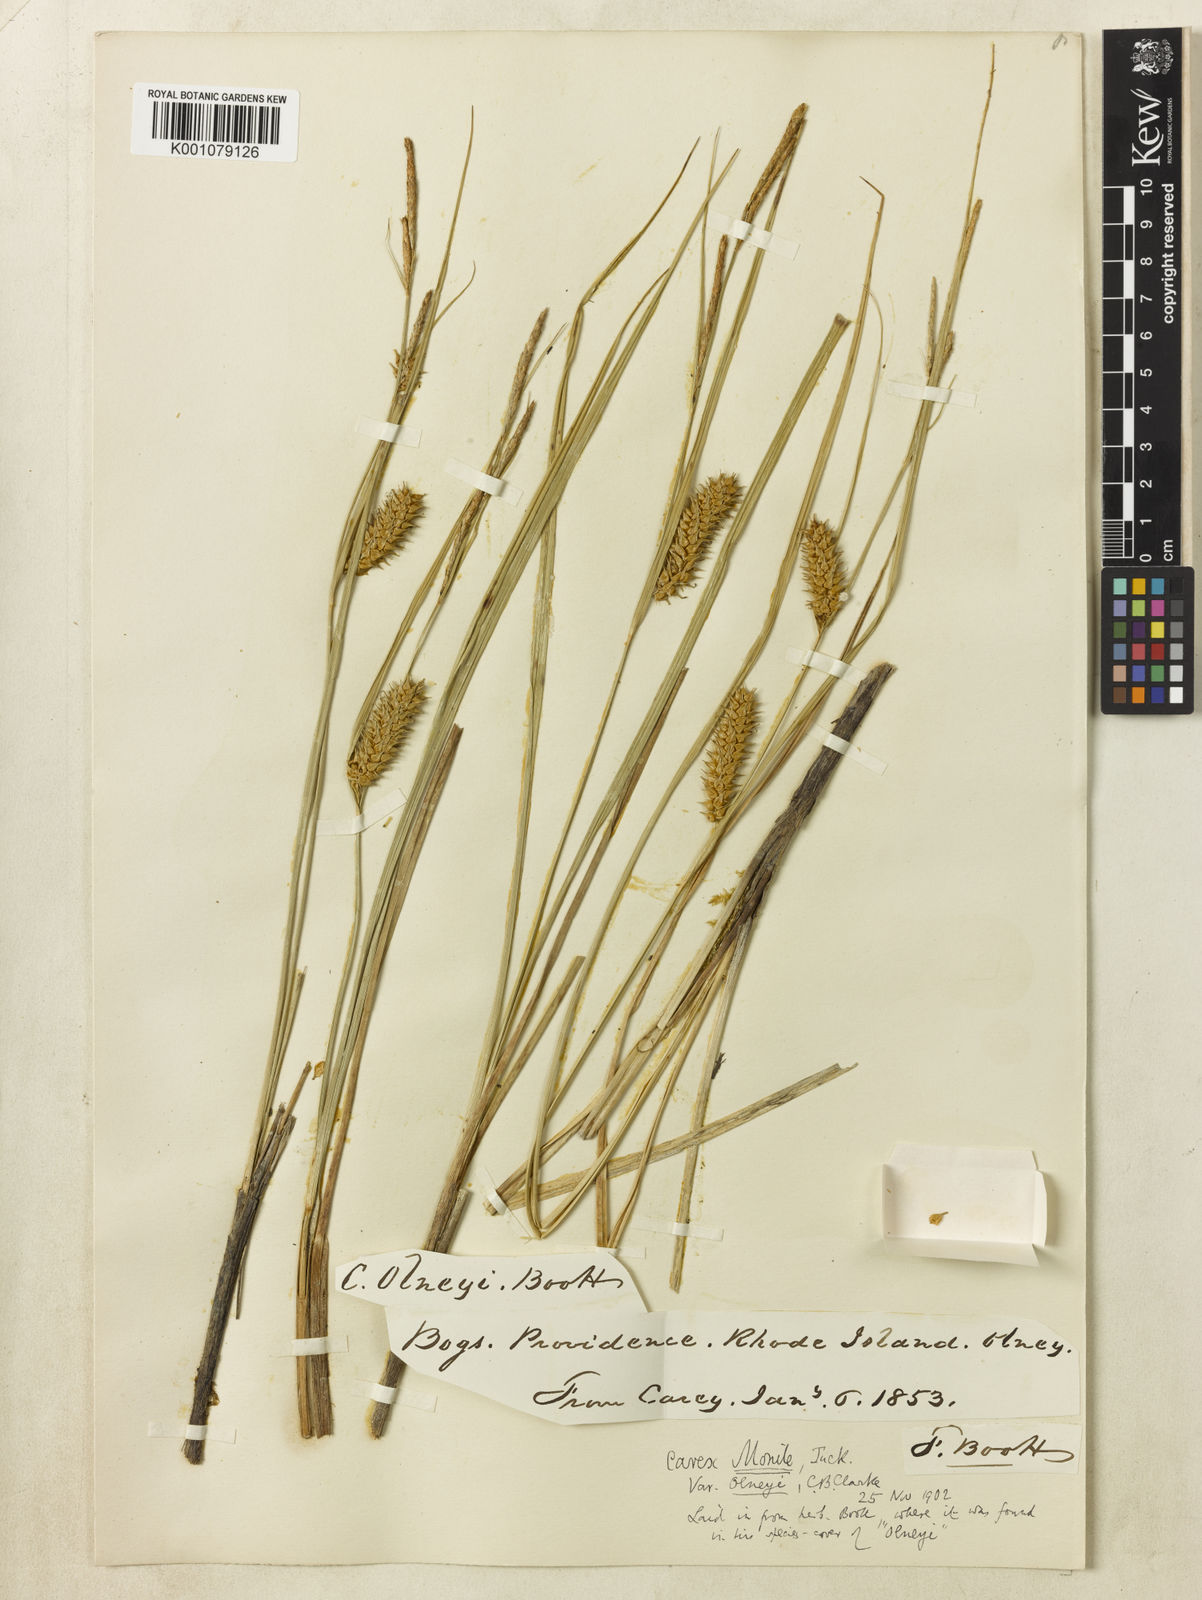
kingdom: Plantae
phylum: Tracheophyta
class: Liliopsida
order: Poales
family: Cyperaceae
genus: Carex
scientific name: Carex
